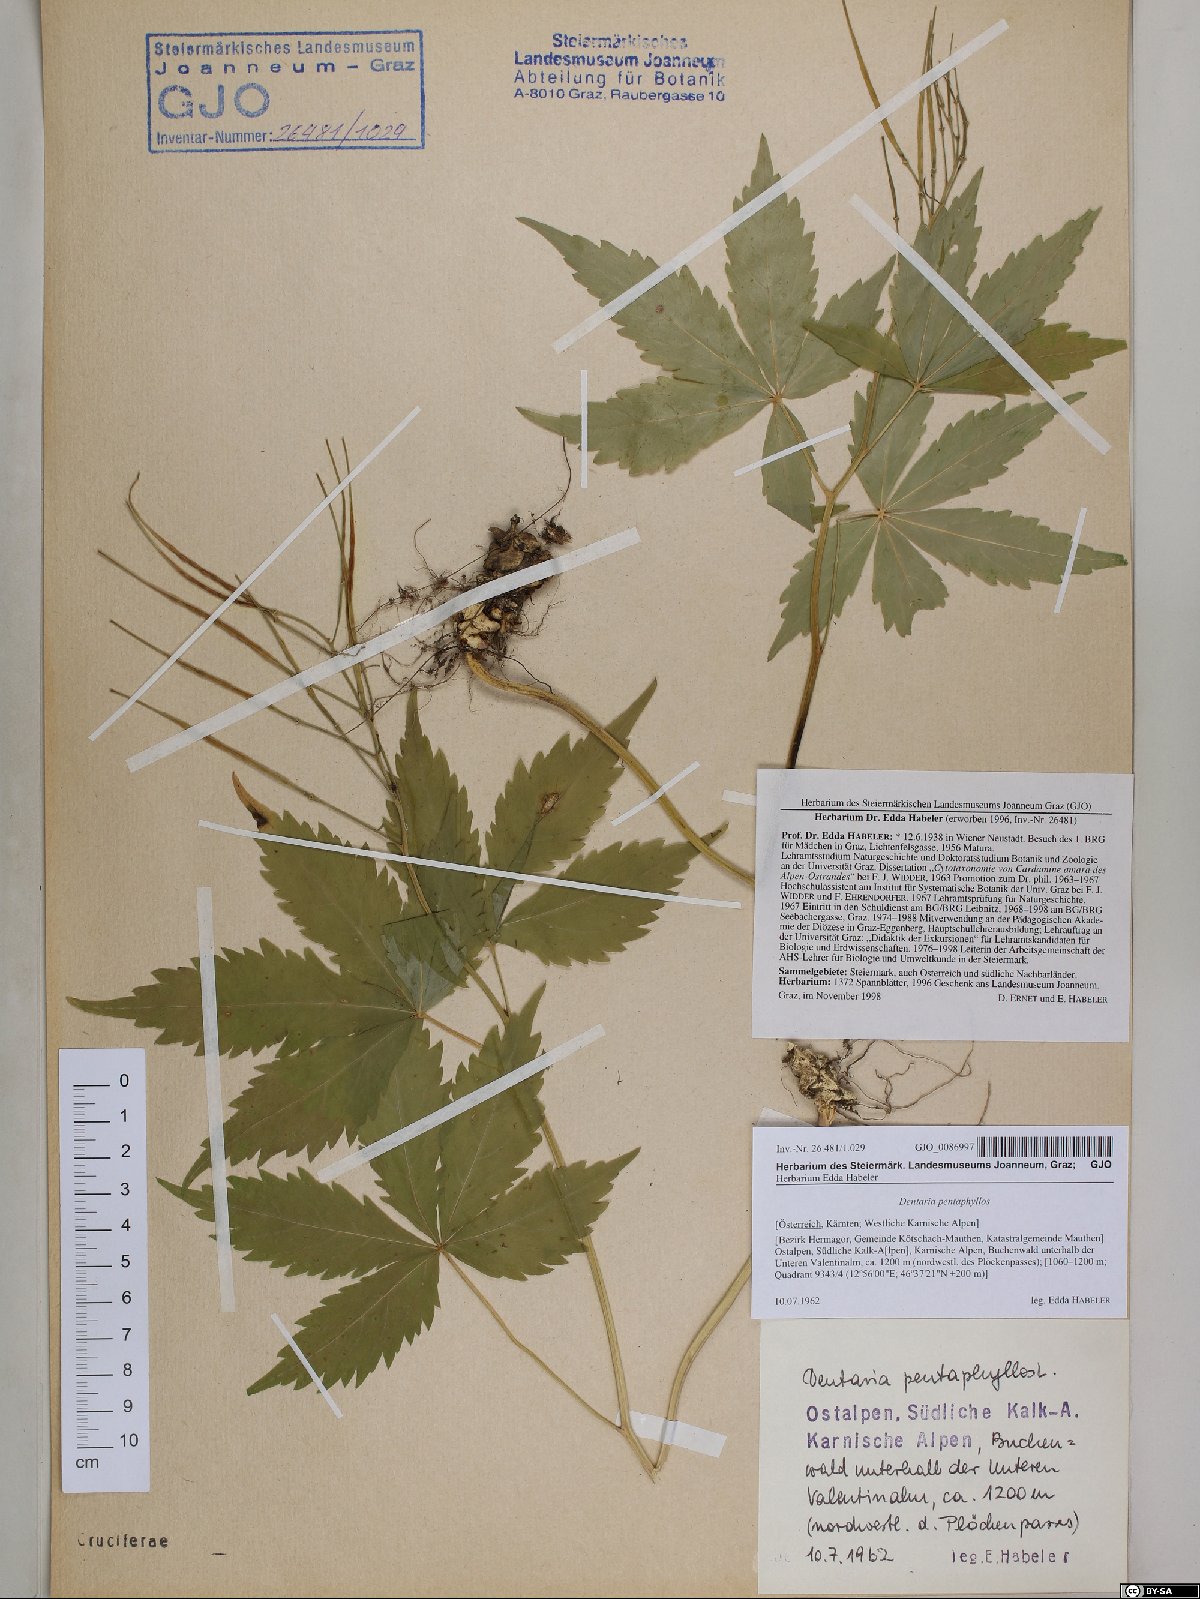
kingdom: Plantae
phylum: Tracheophyta
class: Magnoliopsida
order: Brassicales
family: Brassicaceae
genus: Cardamine
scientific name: Cardamine pentaphyllos
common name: Five-leaflet bitter-cress
